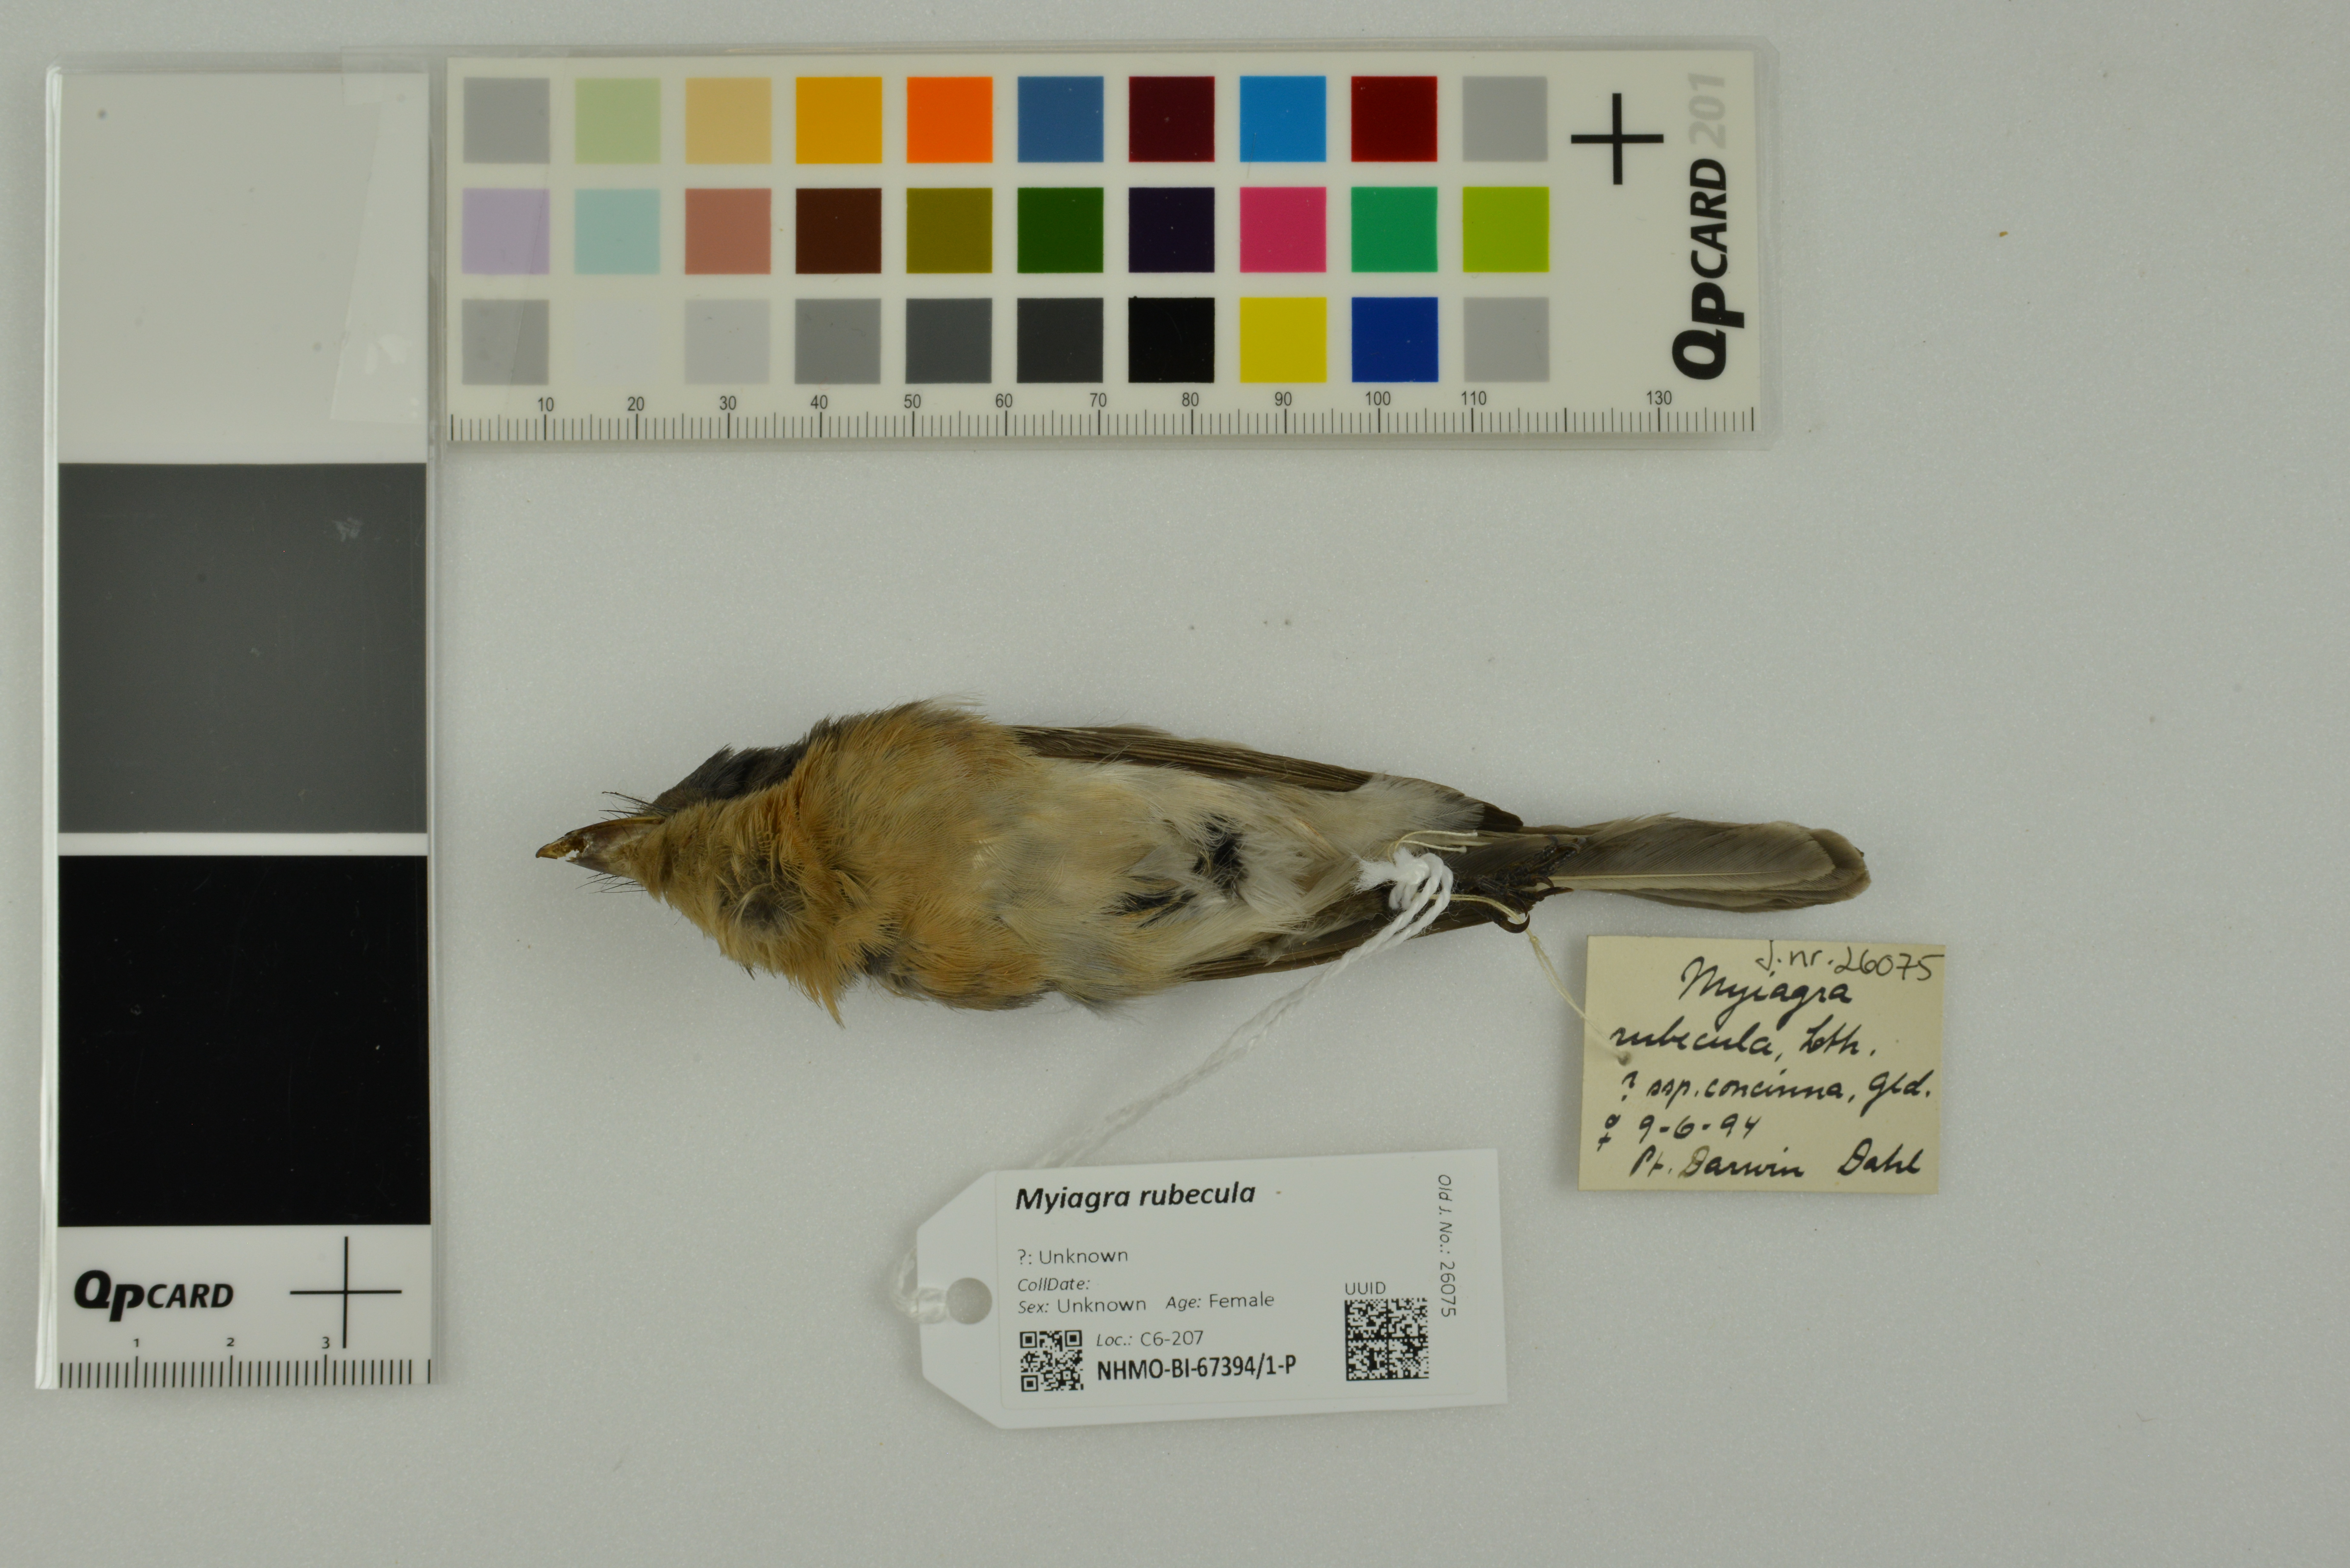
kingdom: Animalia
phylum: Chordata
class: Aves
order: Passeriformes
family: Monarchidae
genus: Myiagra
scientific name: Myiagra rubecula
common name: Leaden flycatcher
